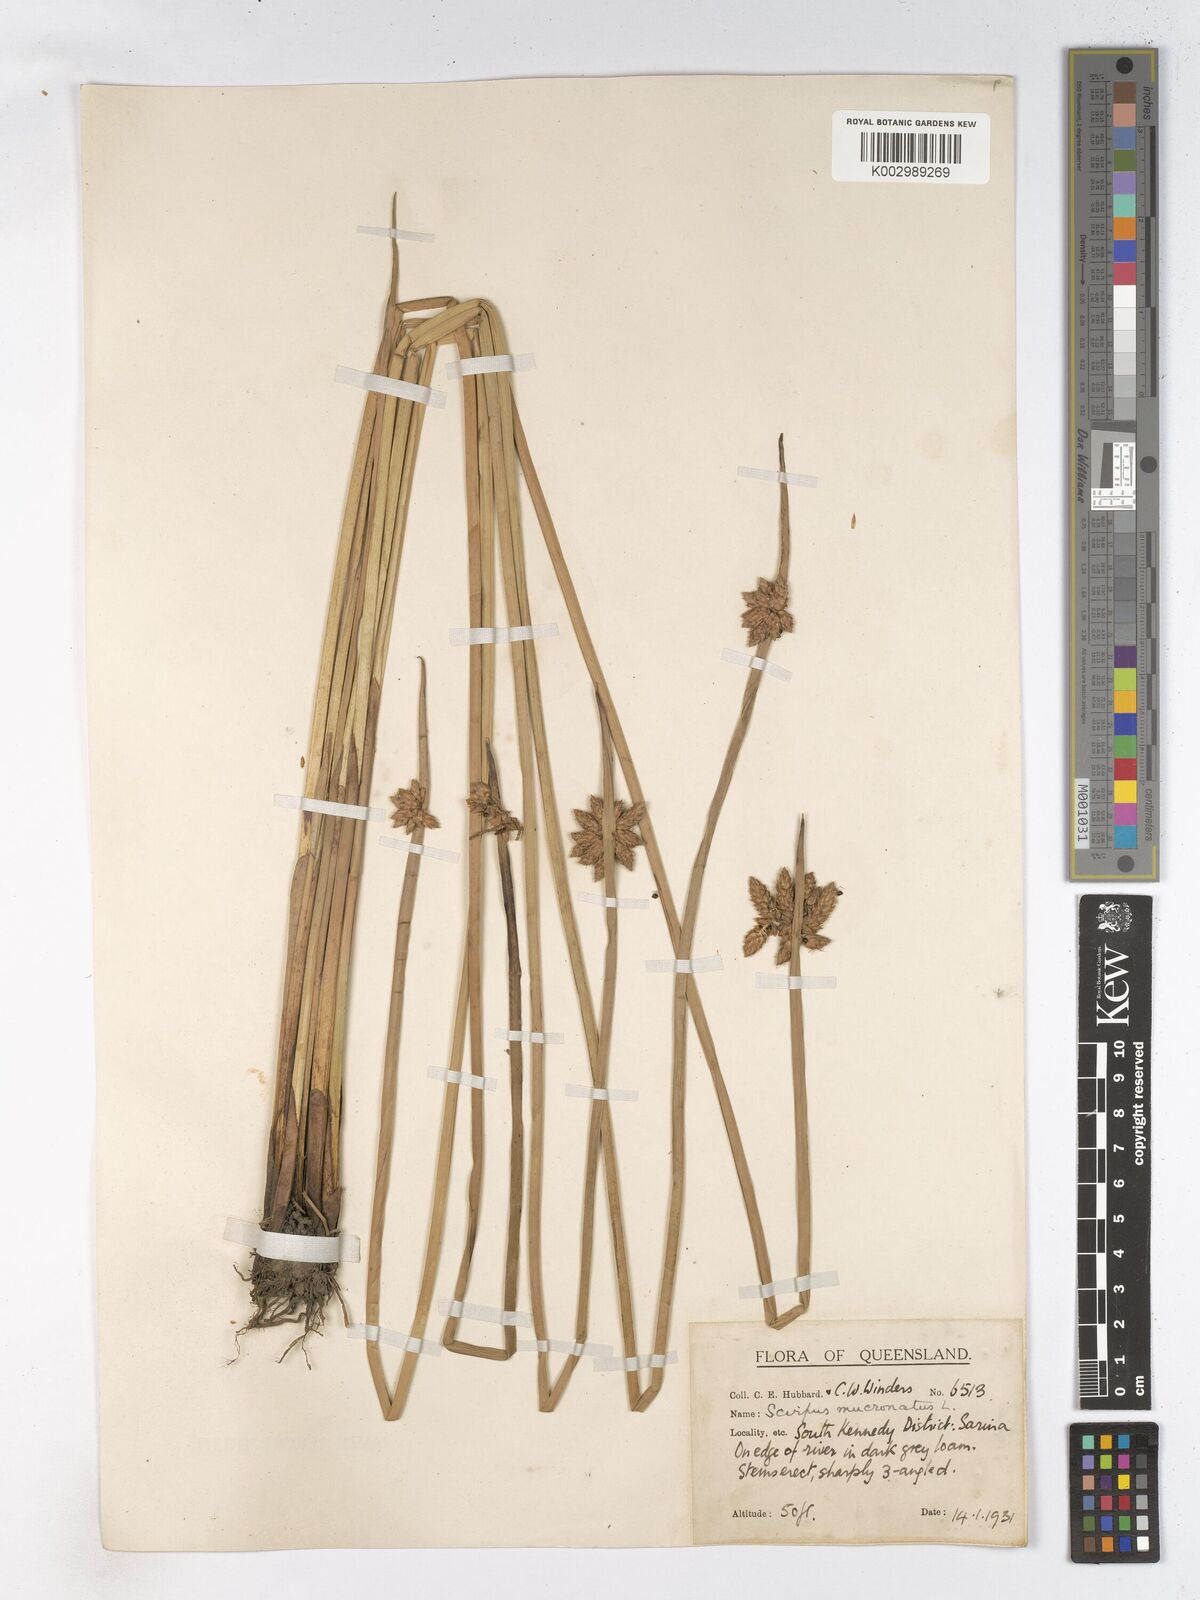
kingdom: Plantae
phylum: Tracheophyta
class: Liliopsida
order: Poales
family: Cyperaceae
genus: Schoenoplectiella
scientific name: Schoenoplectiella mucronata
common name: Bog bulrush
